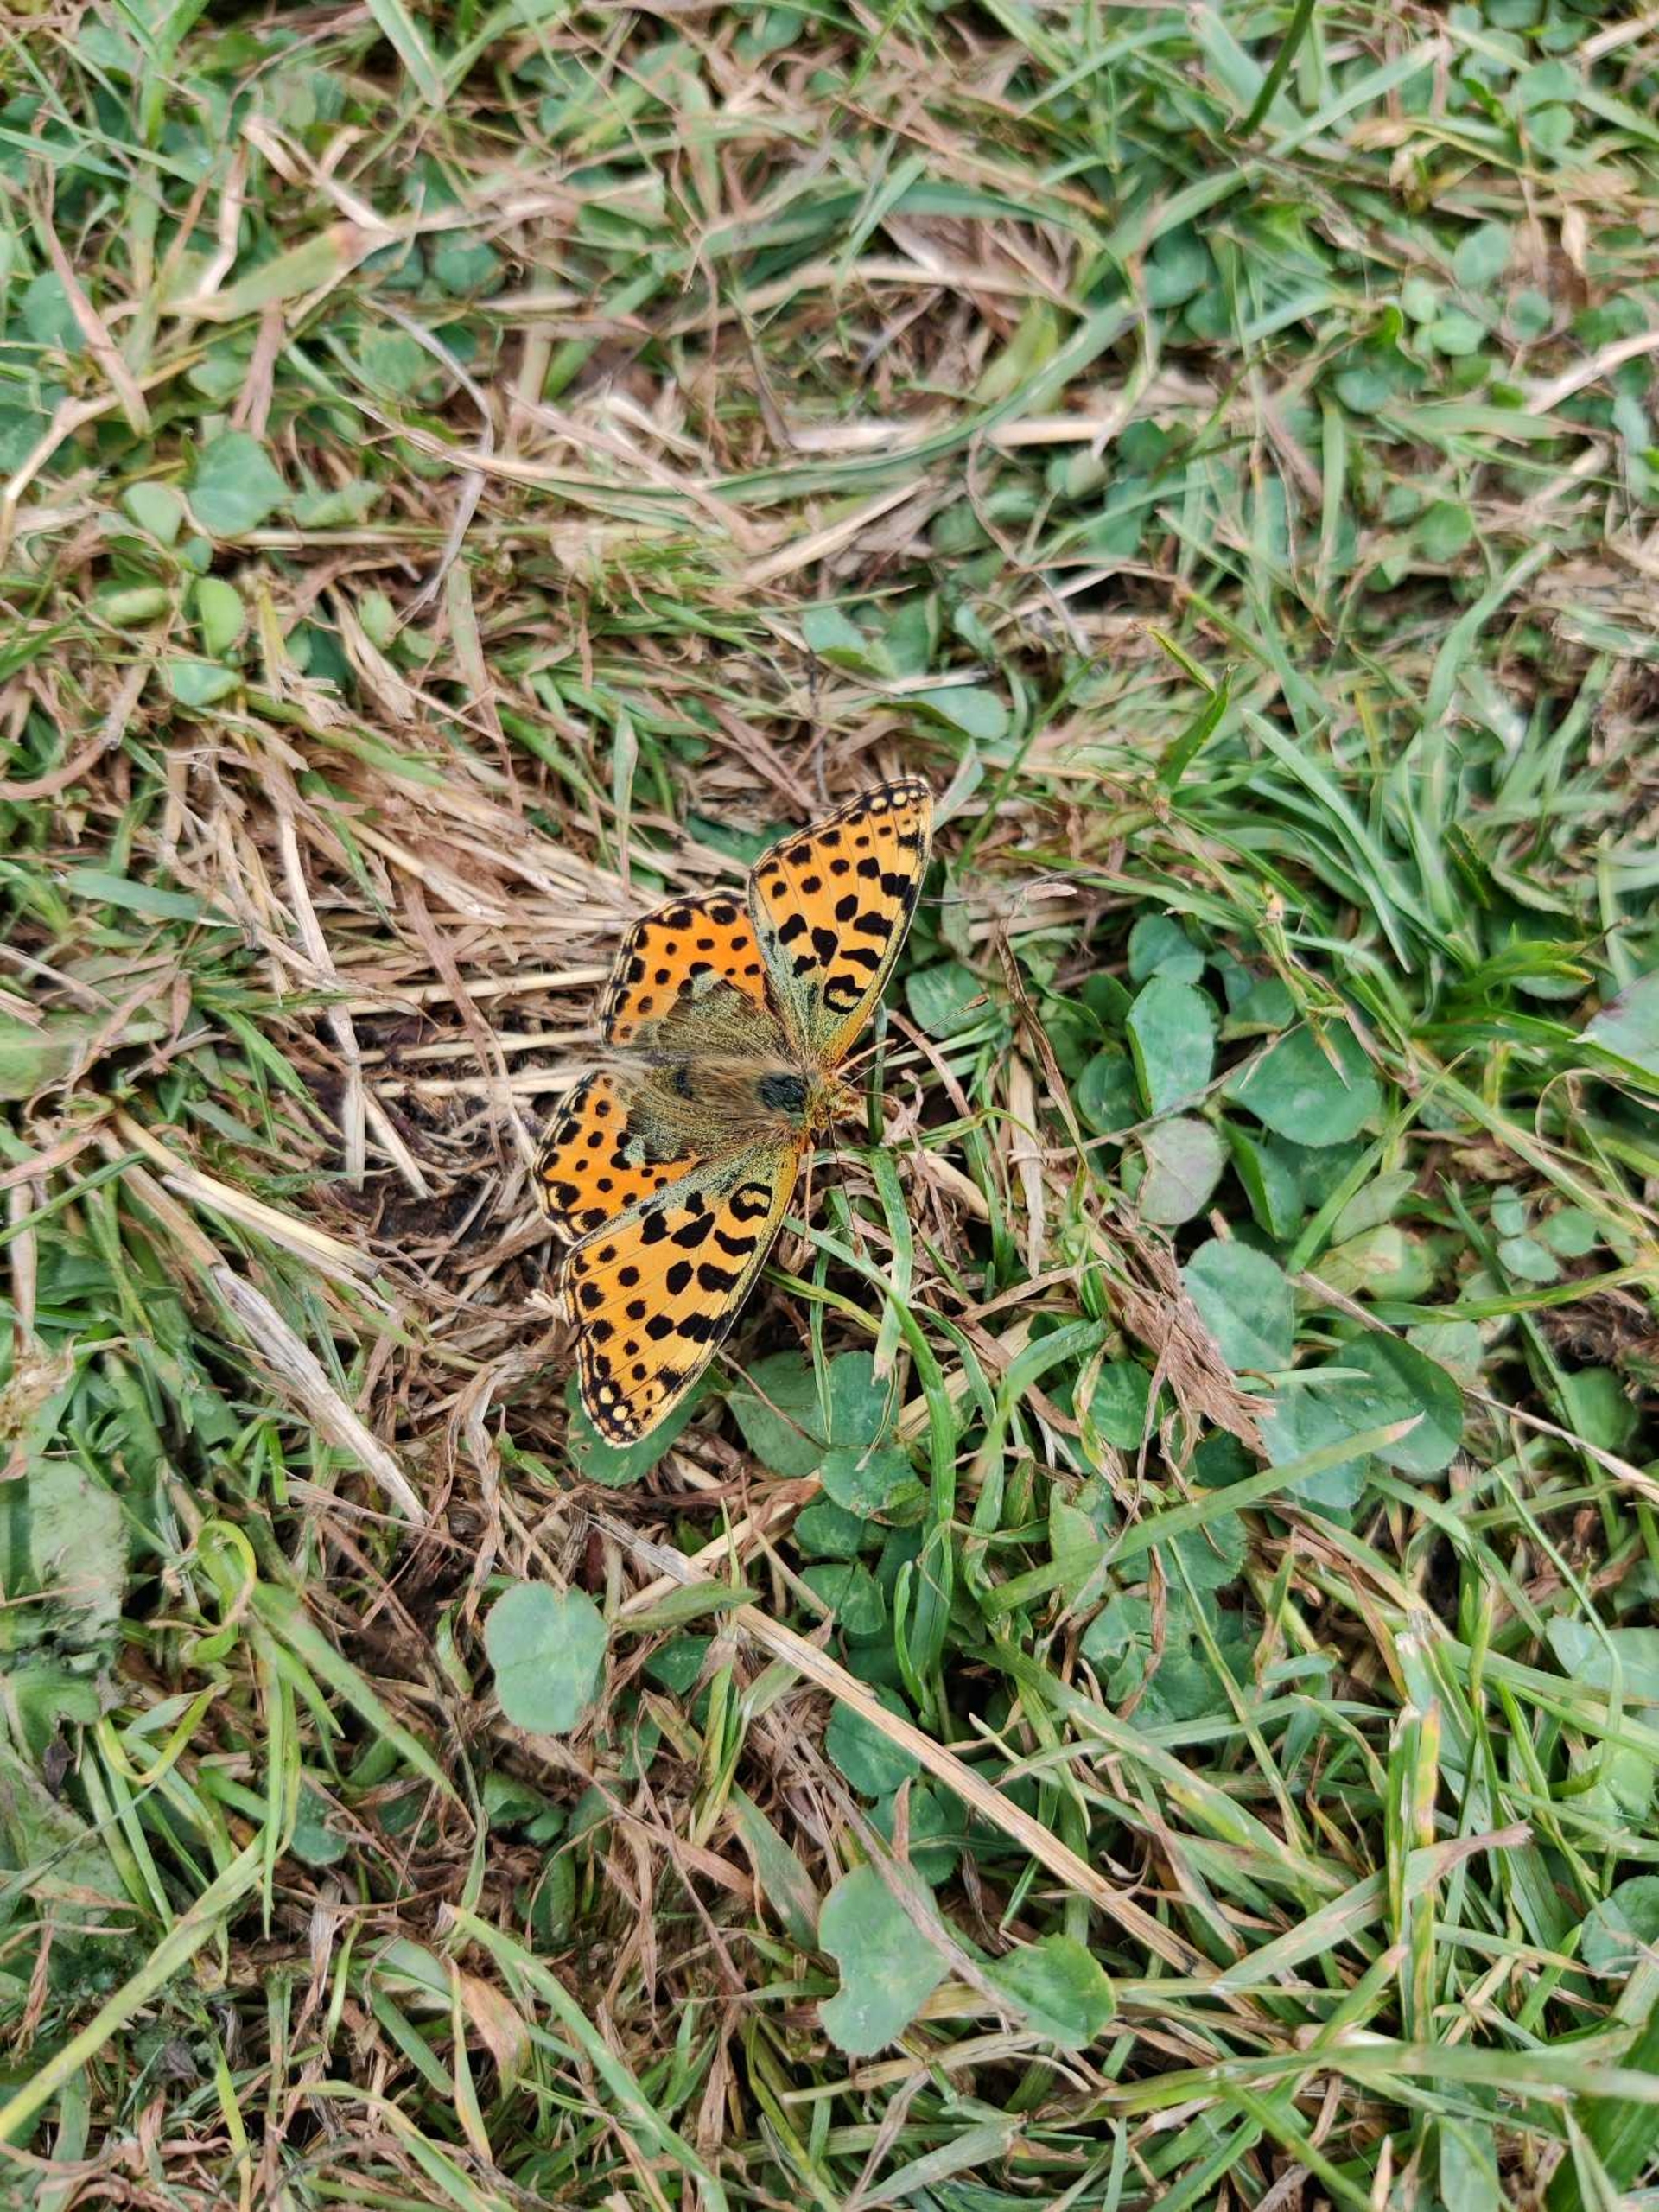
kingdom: Animalia
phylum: Arthropoda
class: Insecta
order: Lepidoptera
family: Nymphalidae
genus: Issoria
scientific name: Issoria lathonia
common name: Storplettet perlemorsommerfugl
